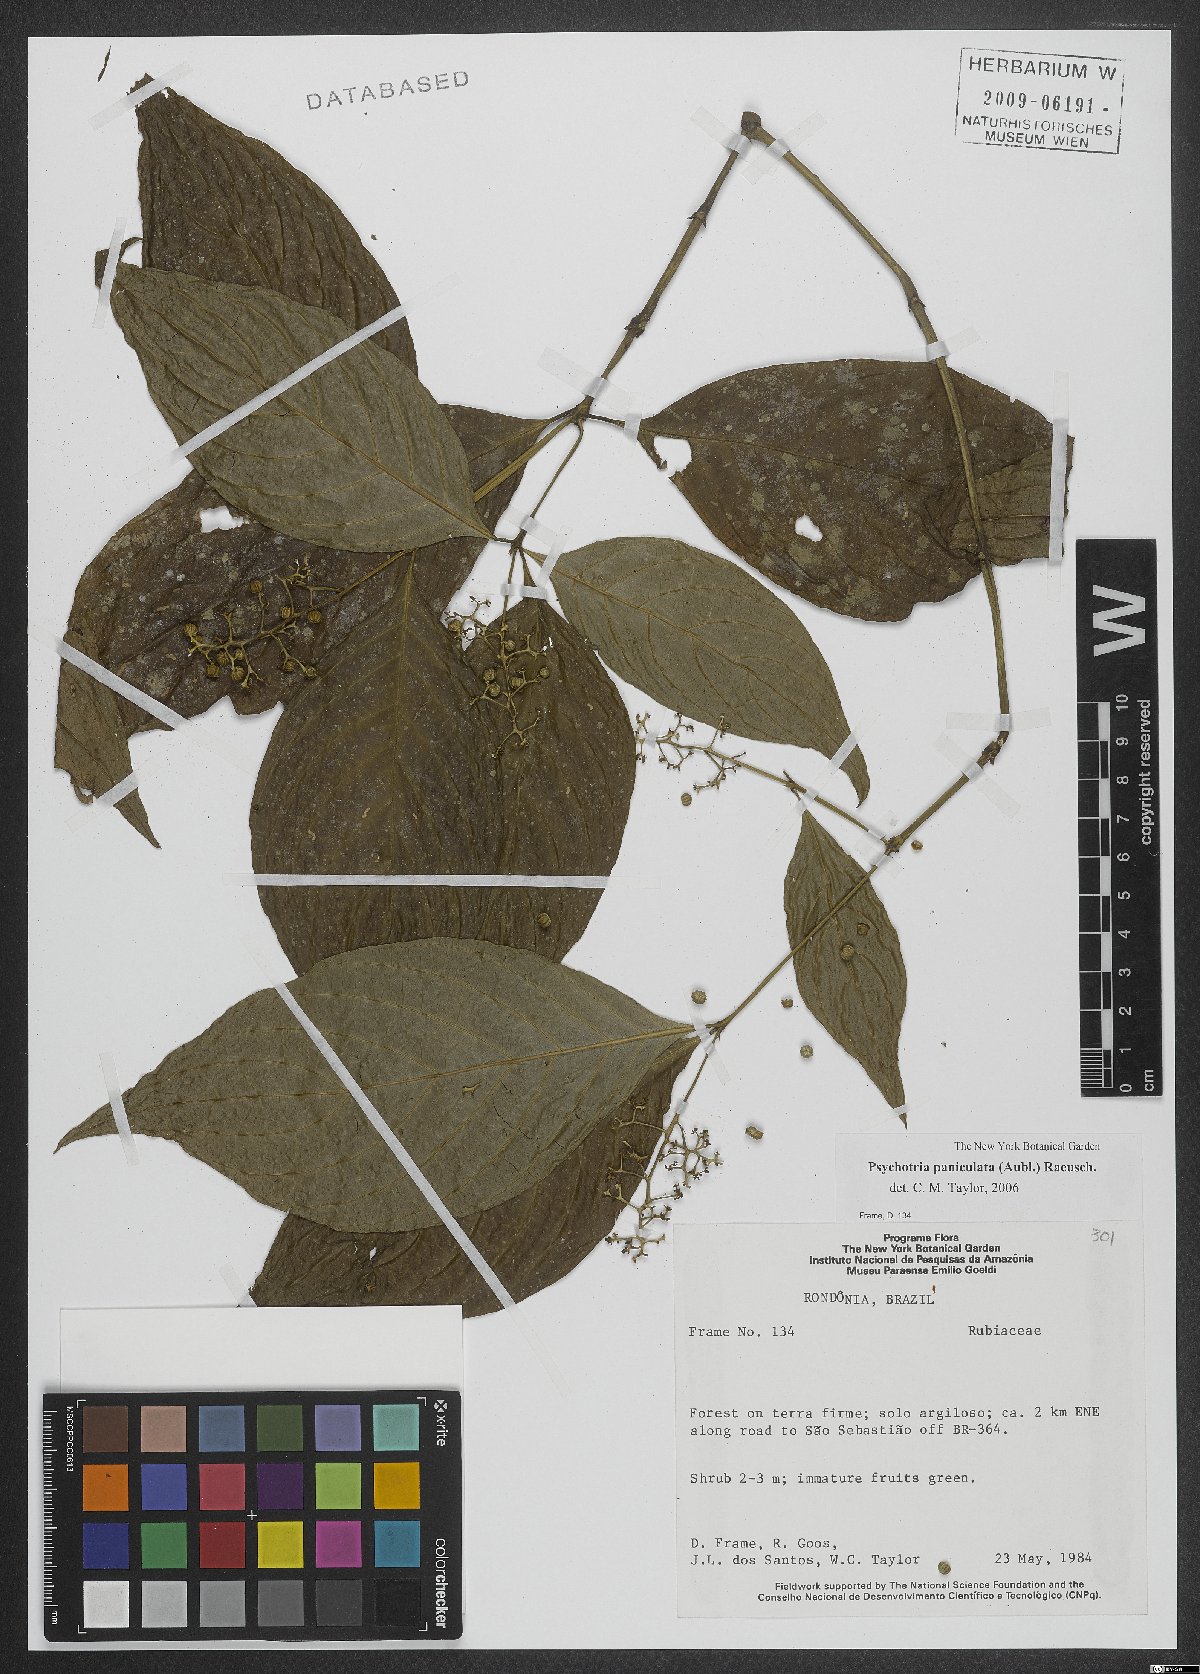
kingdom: Plantae
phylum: Tracheophyta
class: Magnoliopsida
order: Gentianales
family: Rubiaceae
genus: Palicourea
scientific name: Palicourea obliquinervia
